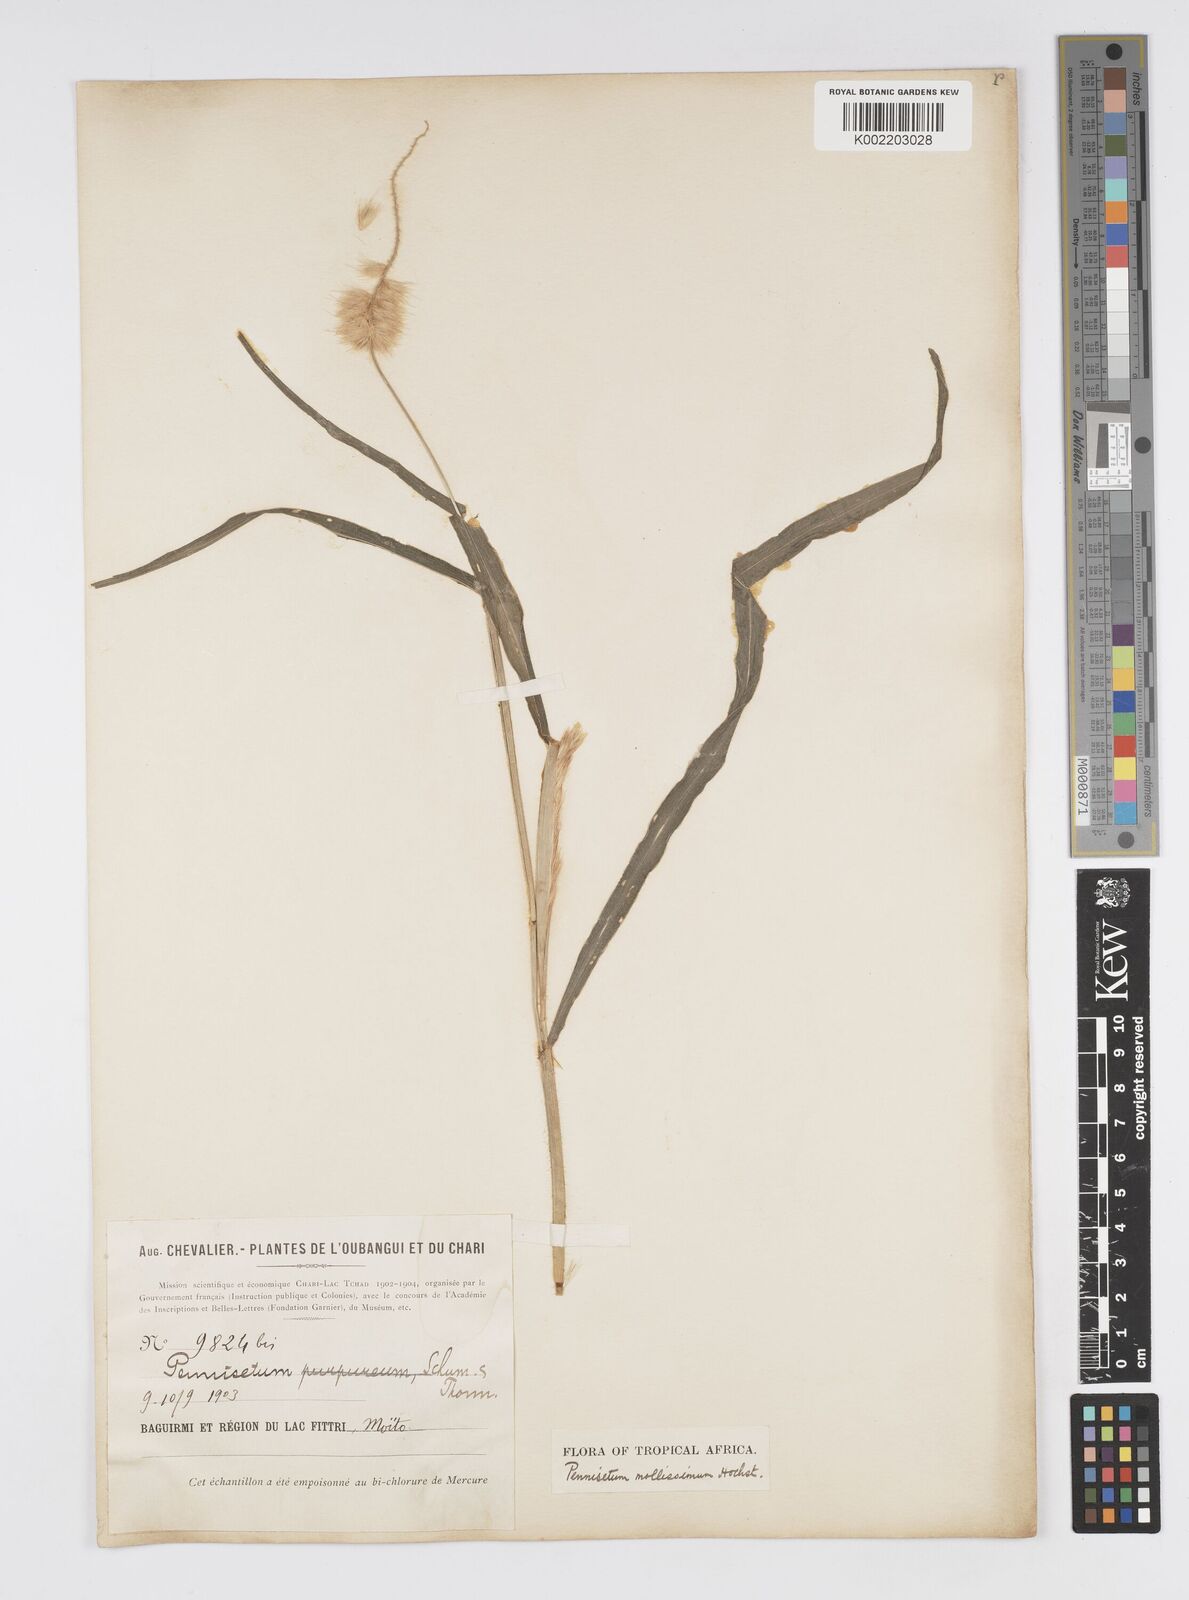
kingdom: Plantae
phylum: Tracheophyta
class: Liliopsida
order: Poales
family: Poaceae
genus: Cenchrus
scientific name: Cenchrus violaceus
